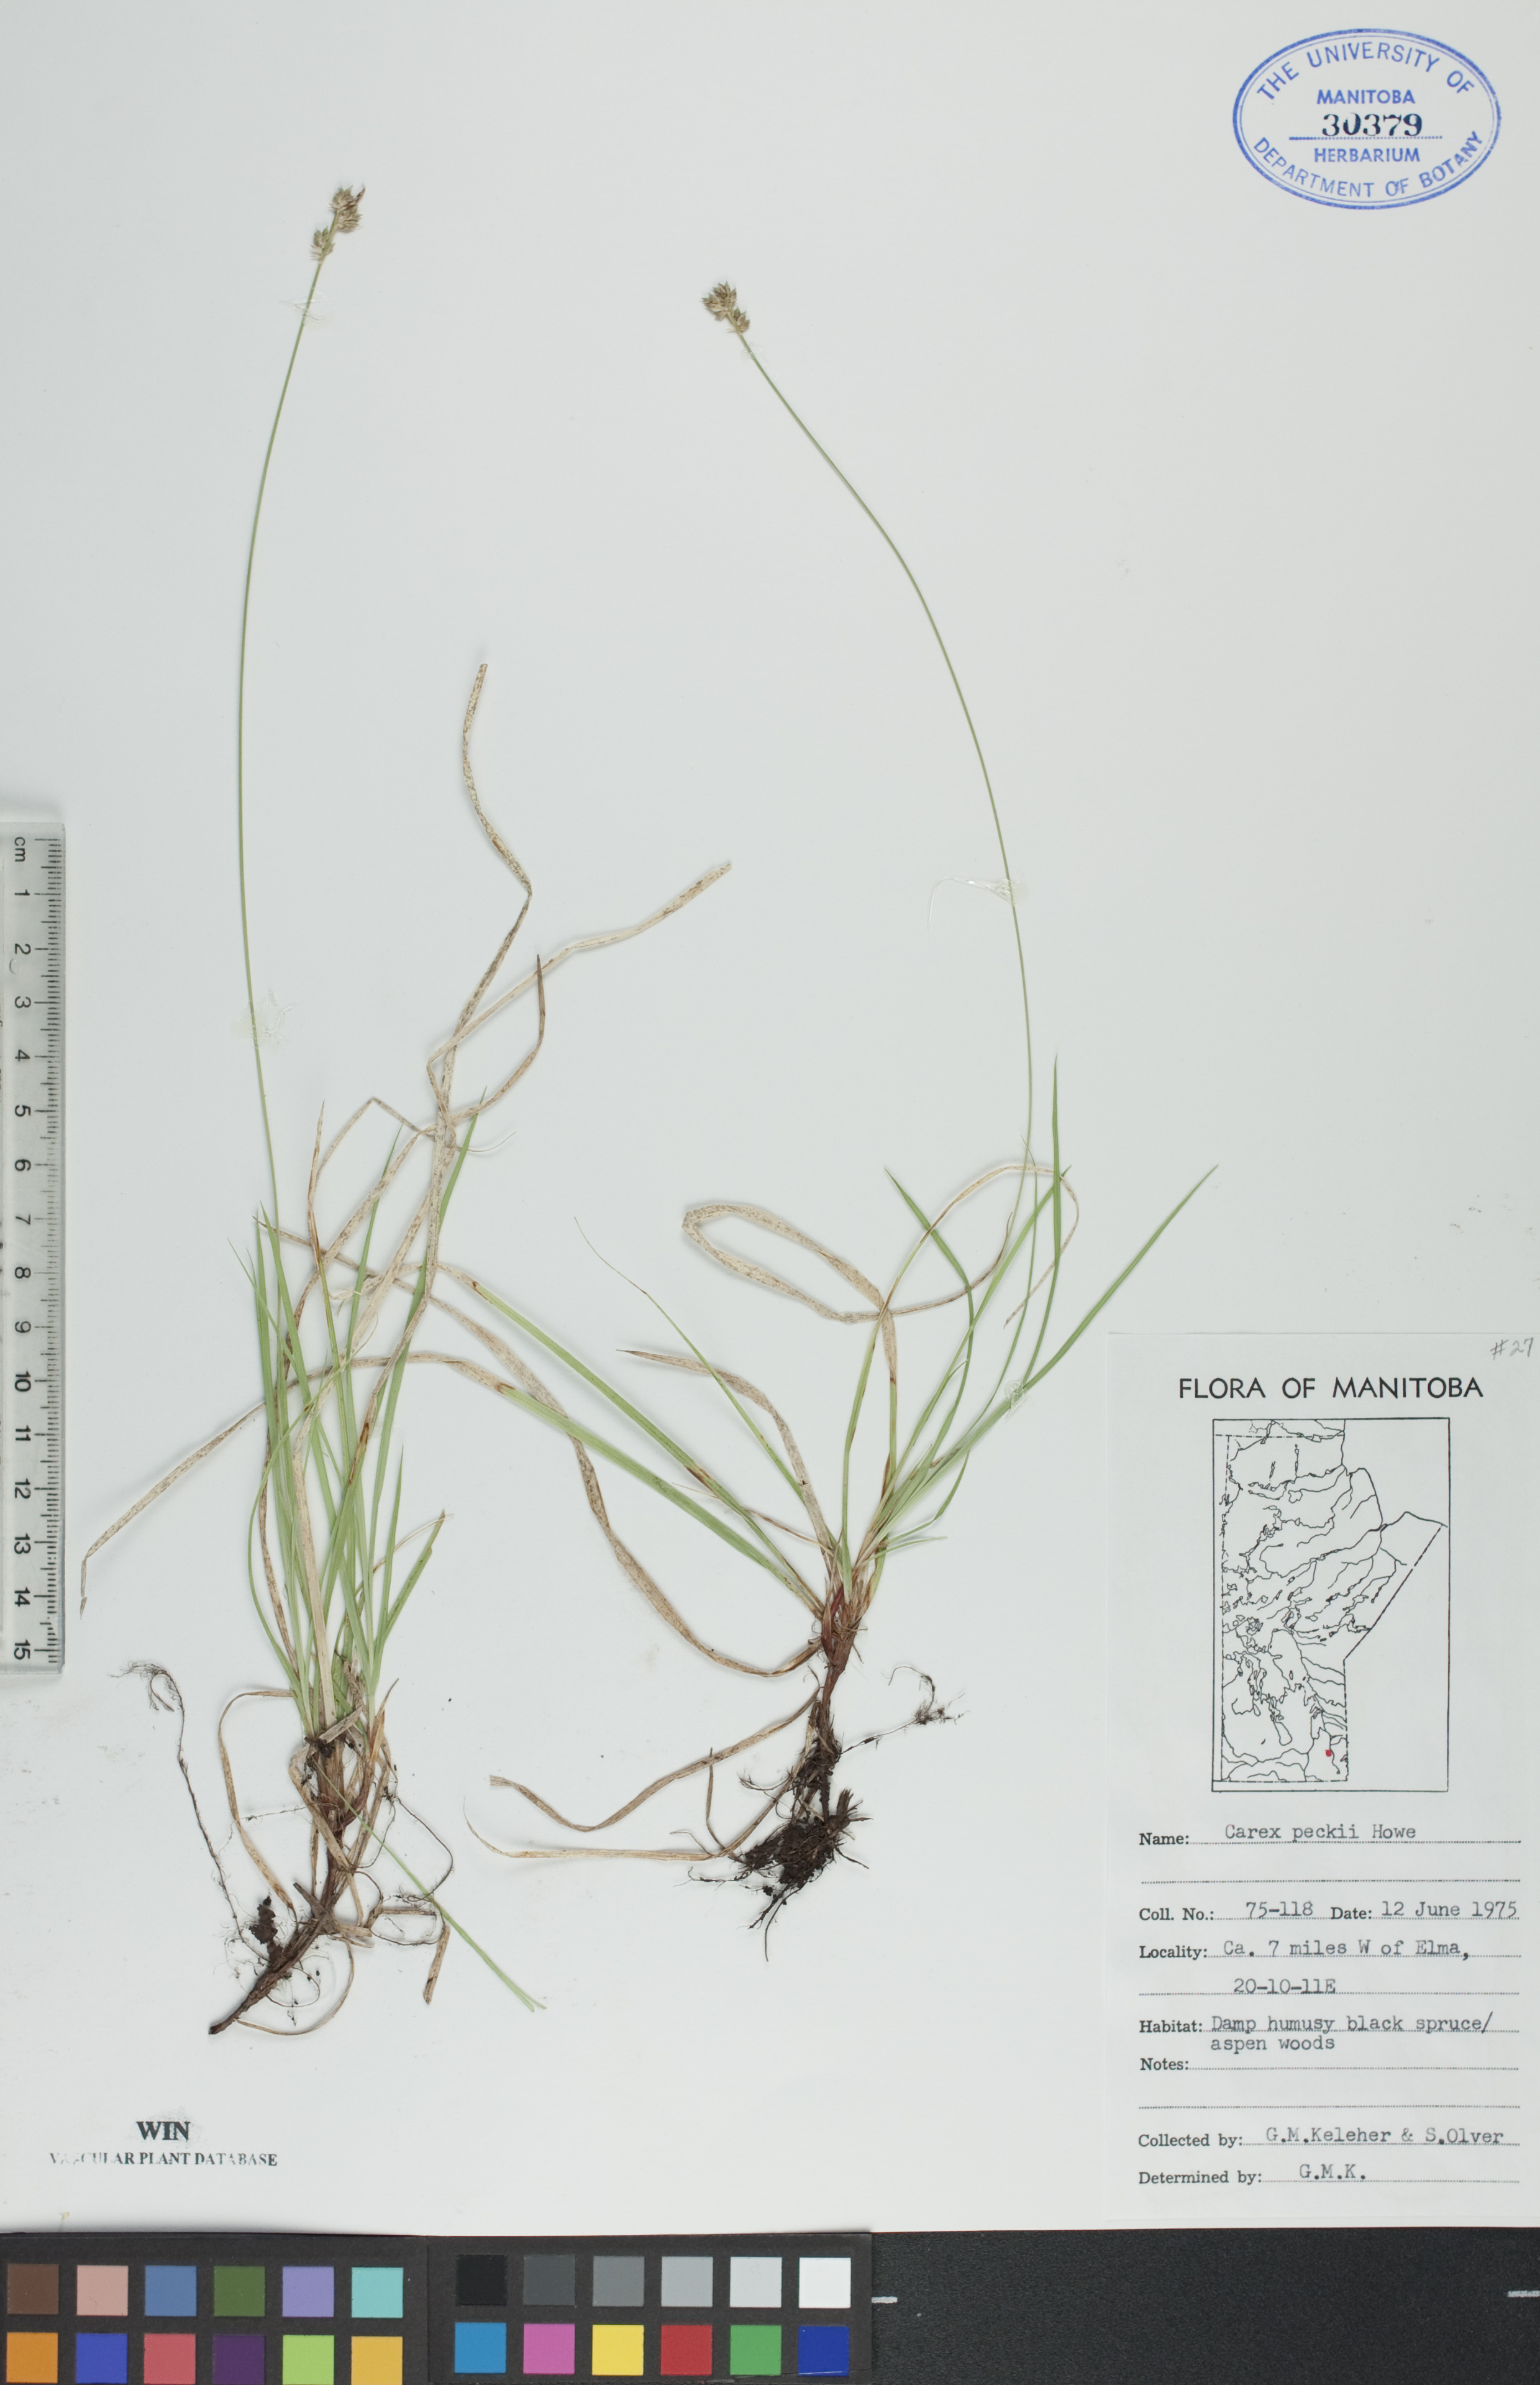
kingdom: Plantae
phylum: Tracheophyta
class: Liliopsida
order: Poales
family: Cyperaceae
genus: Carex
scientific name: Carex peckii
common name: Peck's oak sedge
